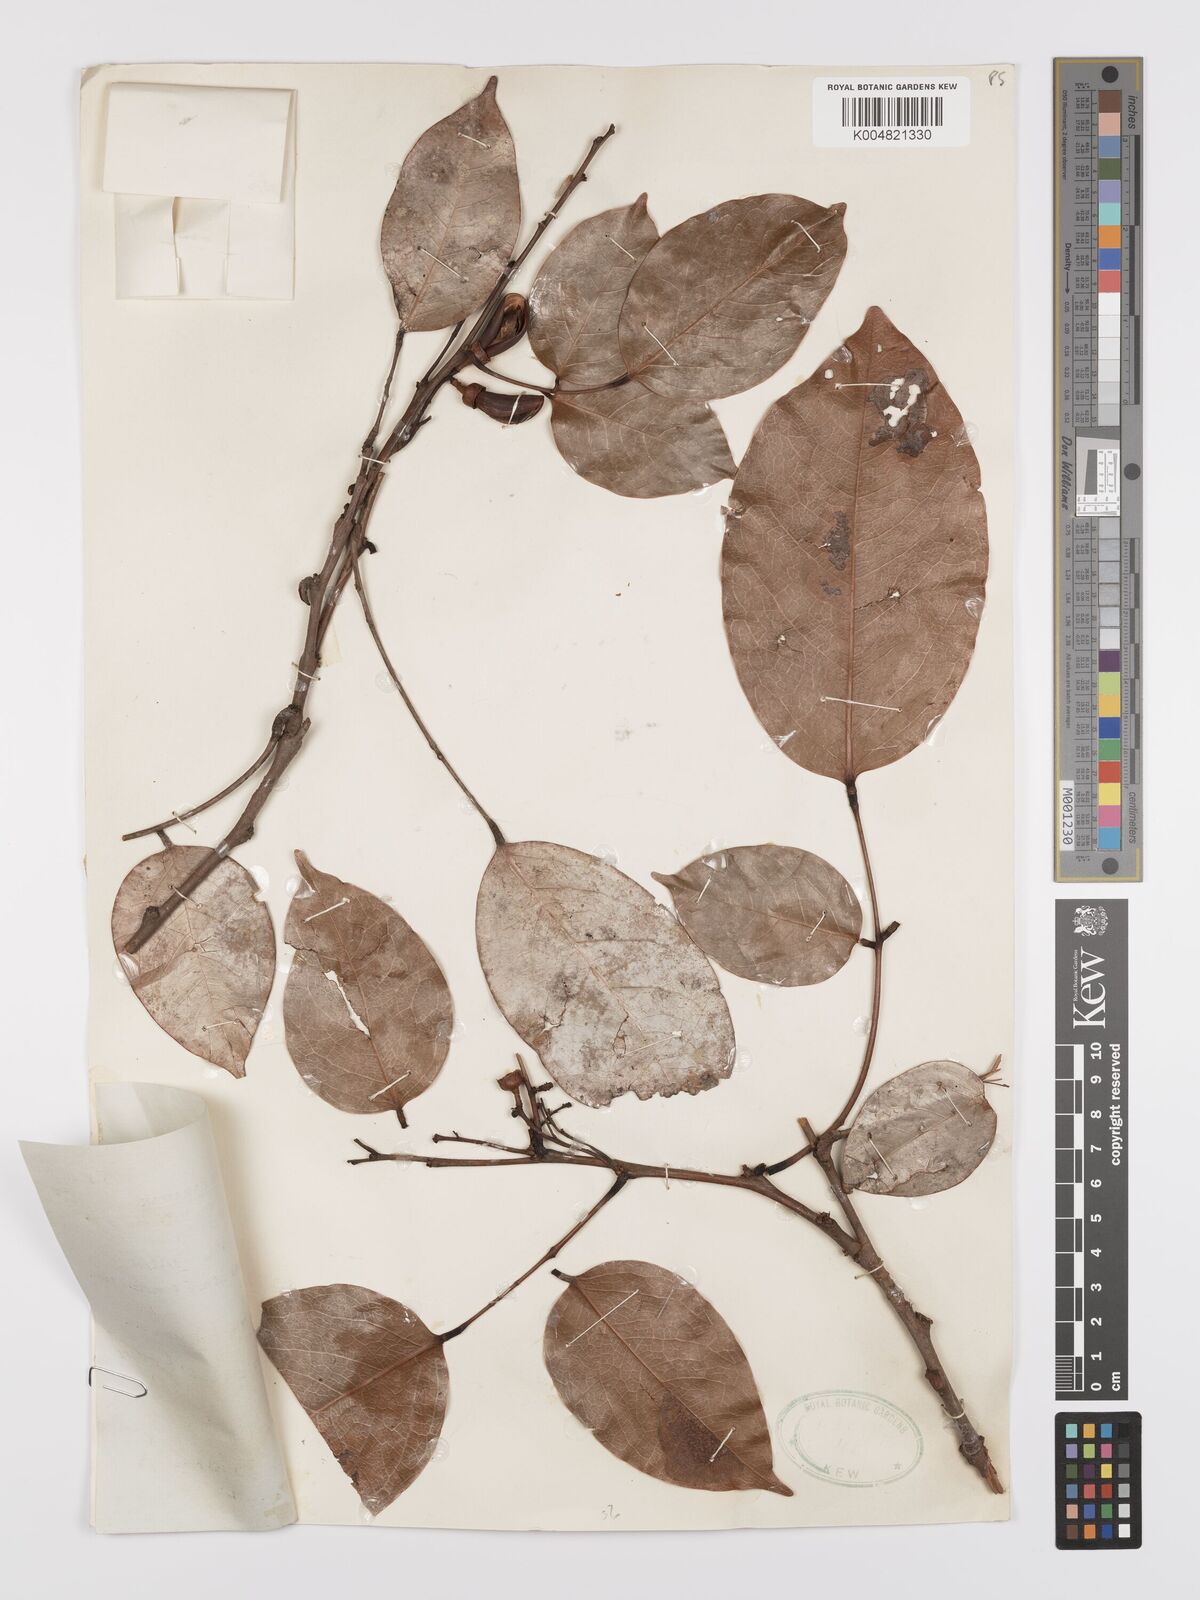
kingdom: Plantae
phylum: Tracheophyta
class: Magnoliopsida
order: Oxalidales
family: Connaraceae
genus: Rourea
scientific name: Rourea minor
